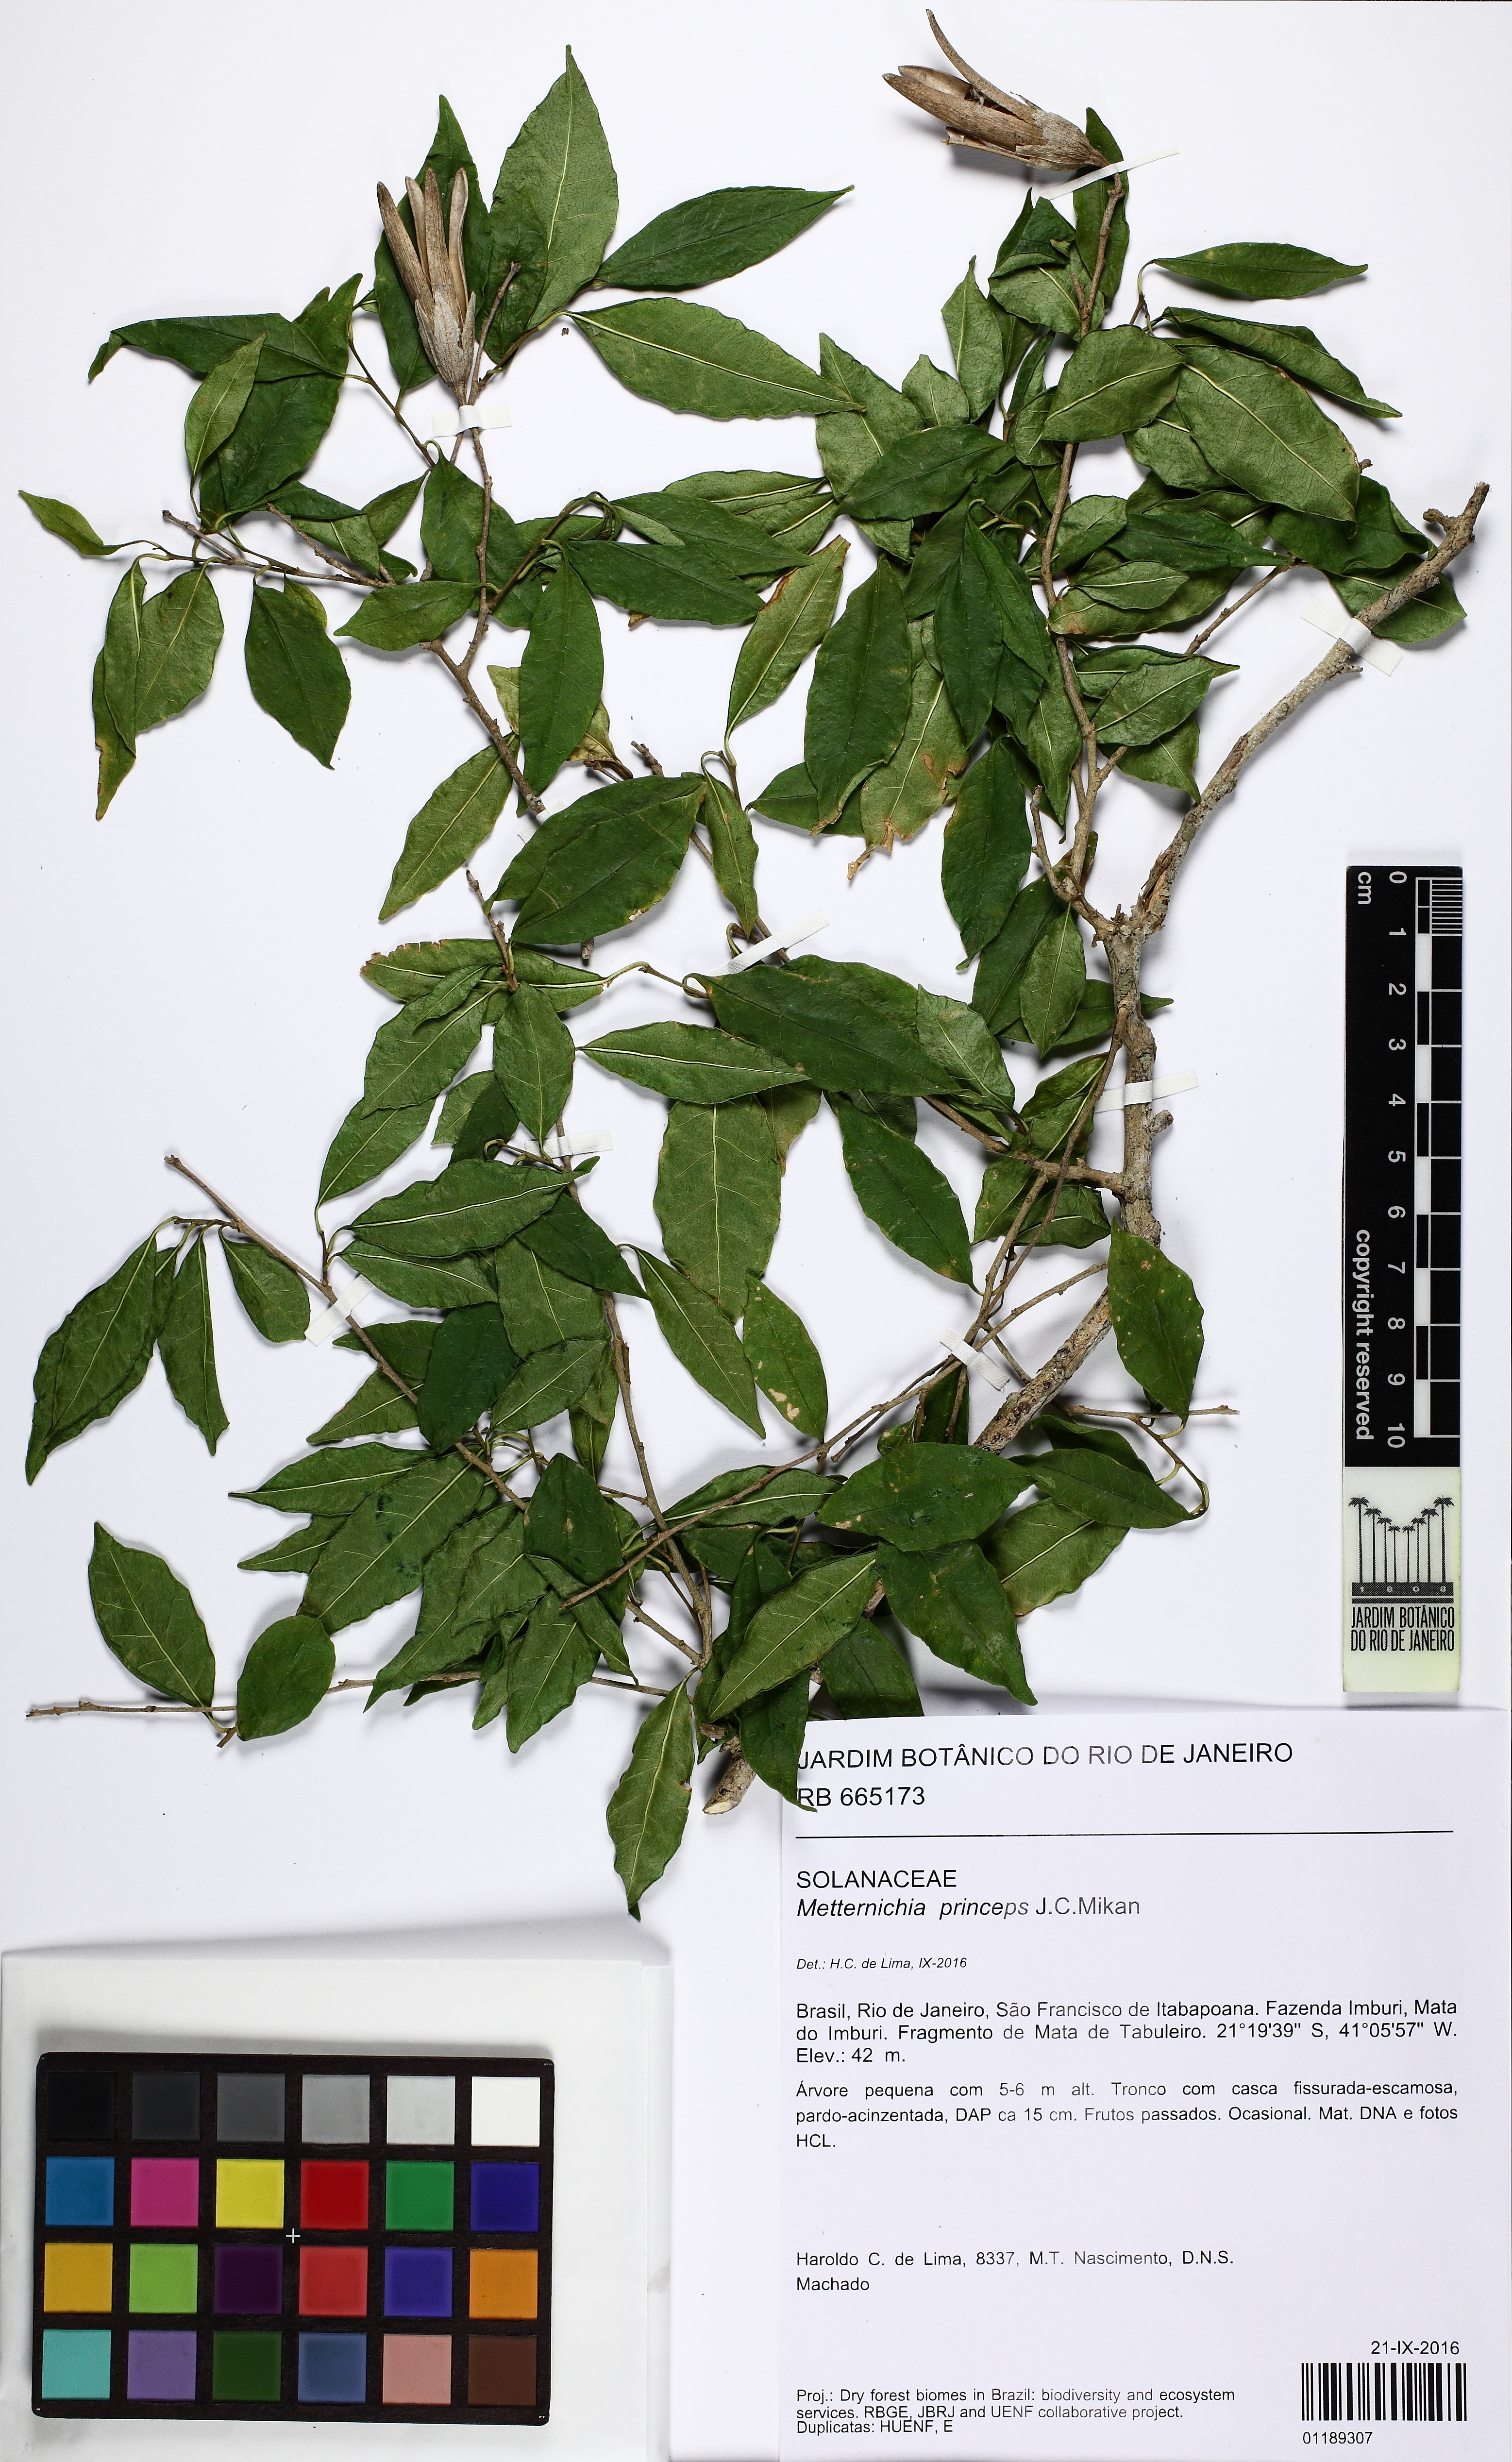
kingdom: Plantae
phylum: Tracheophyta
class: Magnoliopsida
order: Solanales
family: Solanaceae
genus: Metternichia
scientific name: Metternichia princeps
